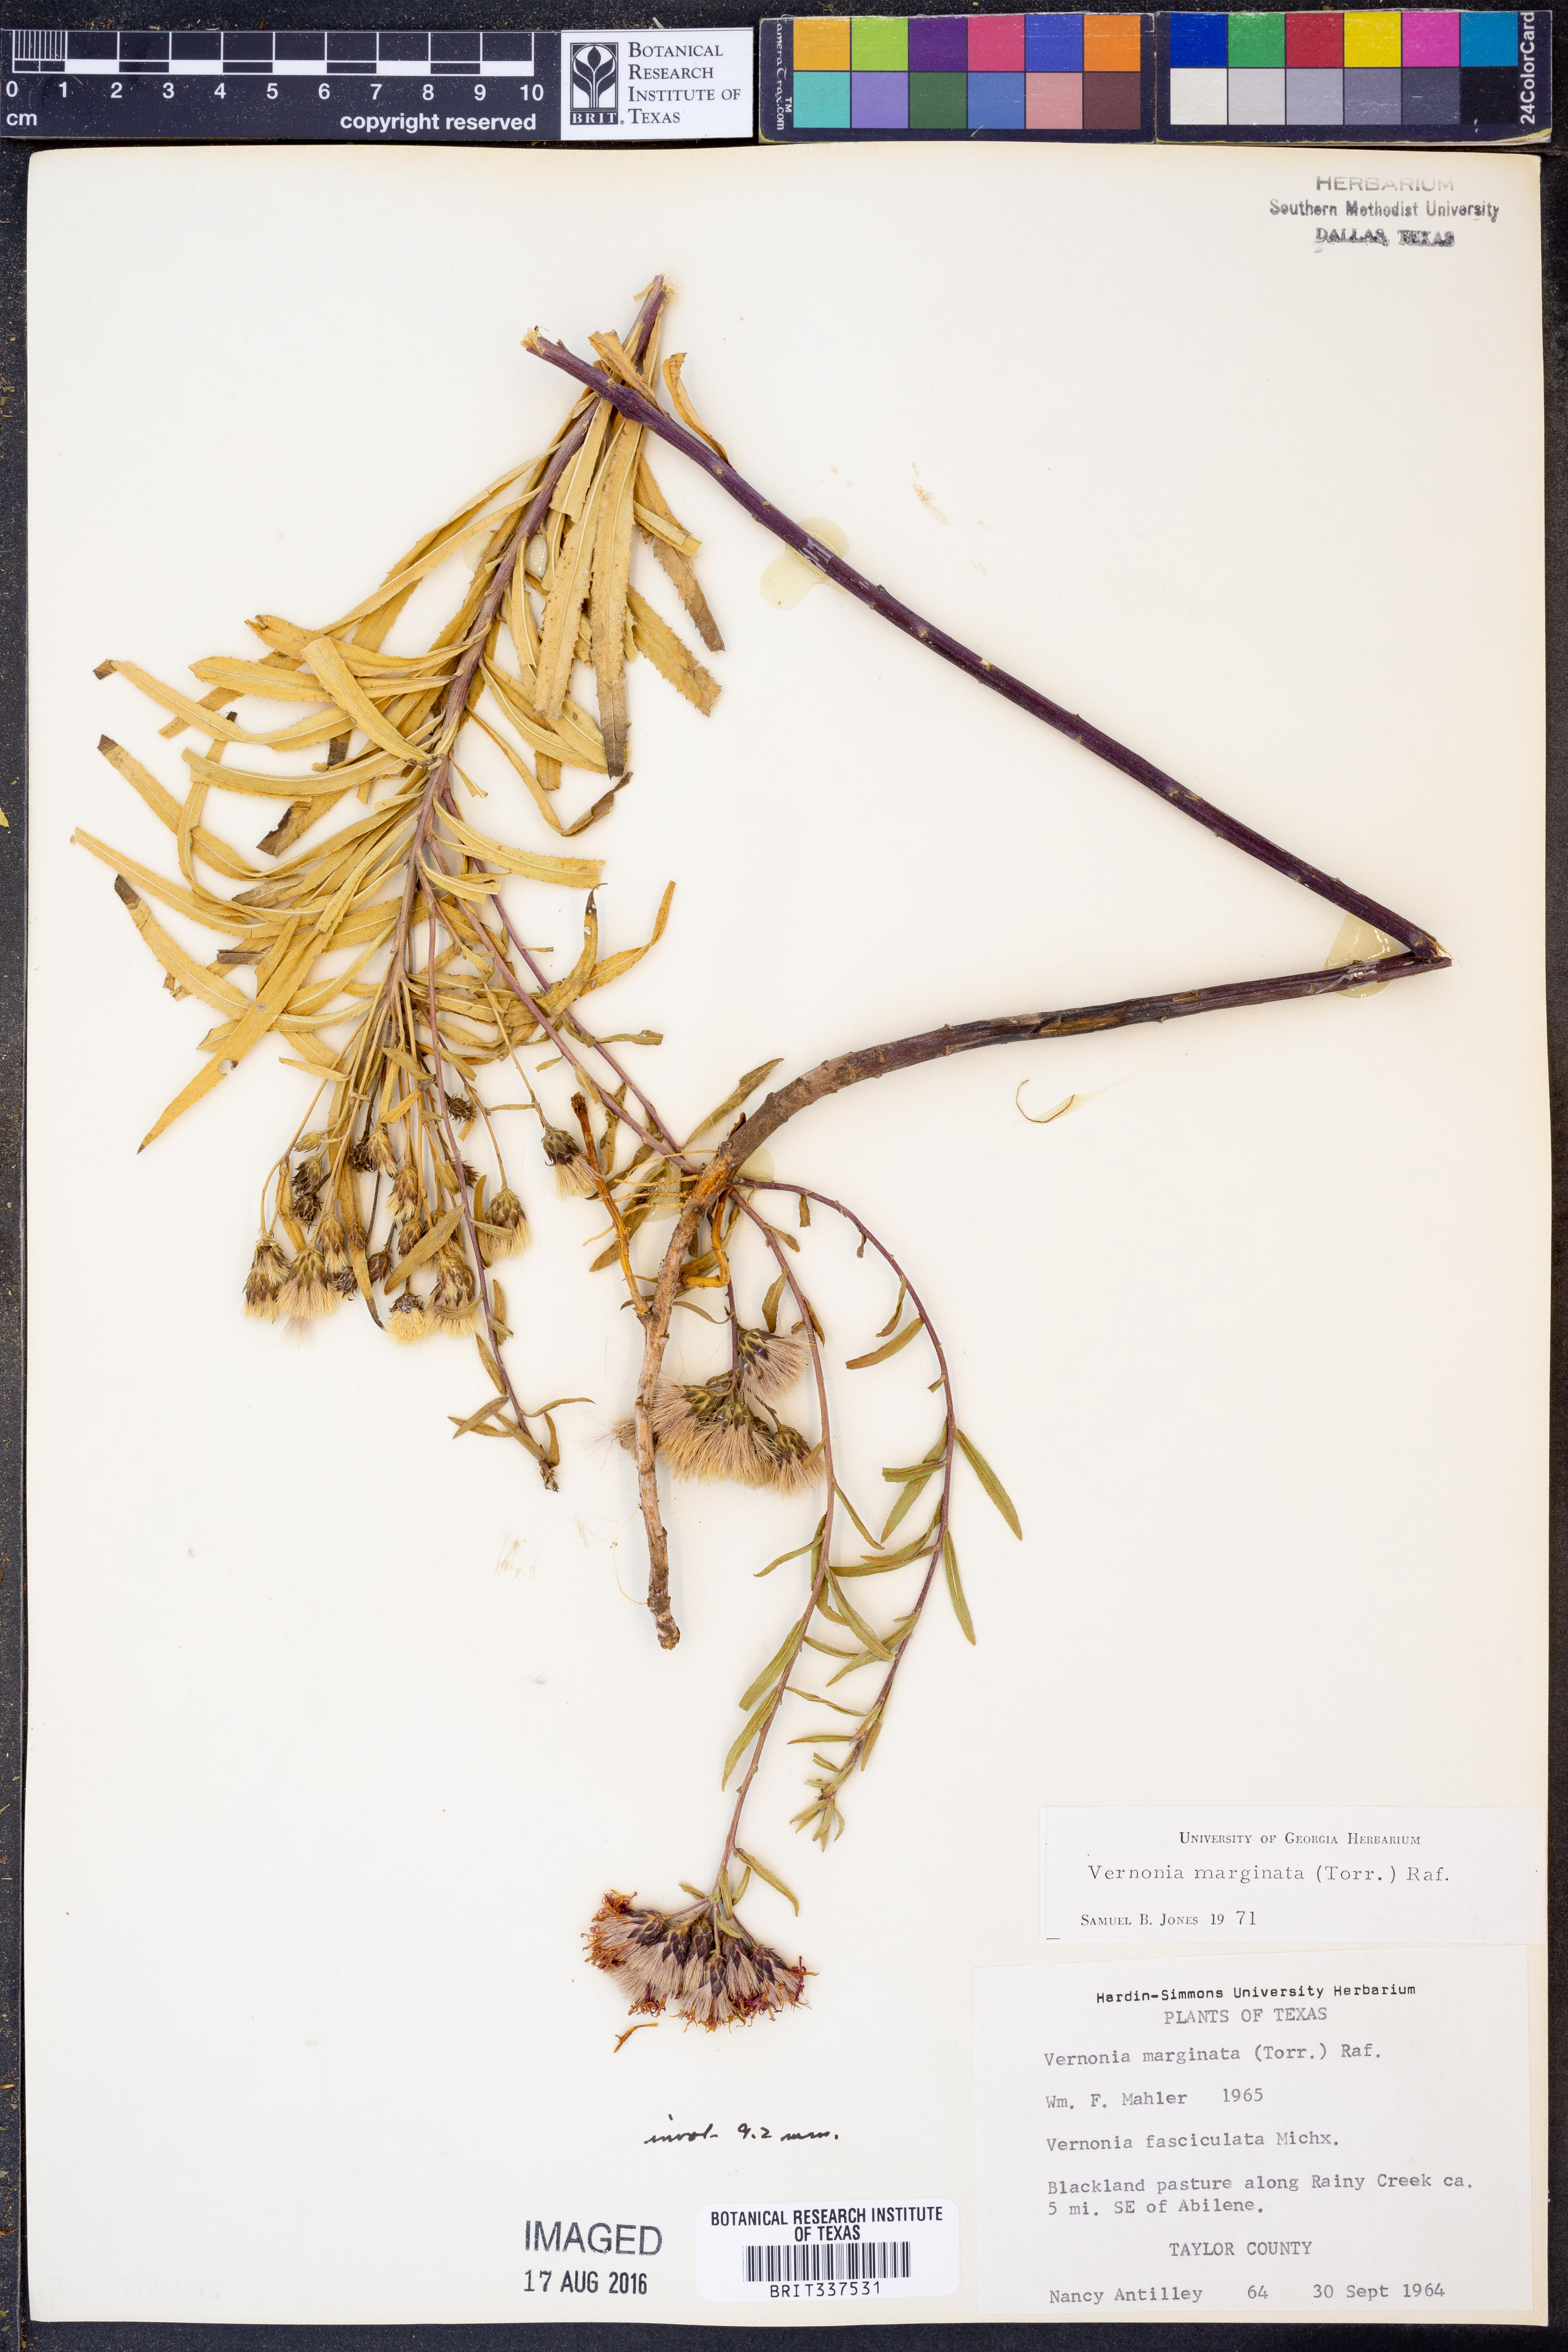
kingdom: Plantae
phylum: Tracheophyta
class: Magnoliopsida
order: Asterales
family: Asteraceae
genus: Vernonia
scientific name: Vernonia marginata
